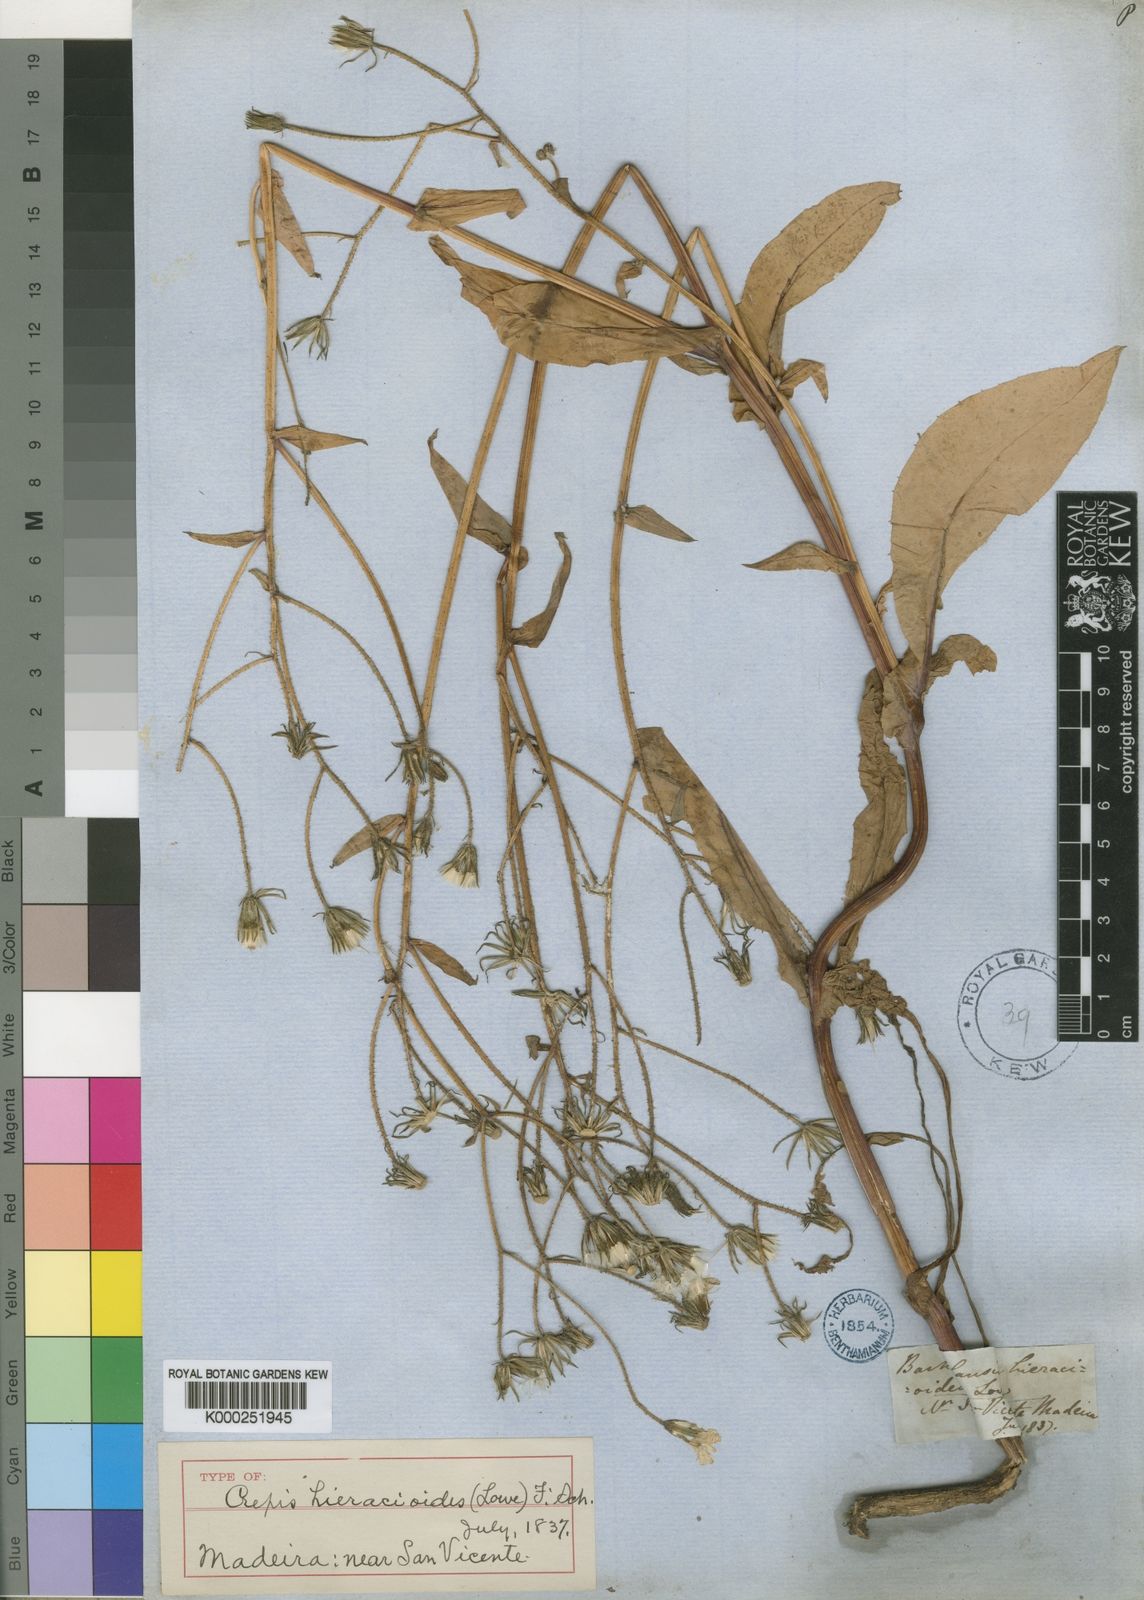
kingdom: Plantae
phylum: Tracheophyta
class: Magnoliopsida
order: Asterales
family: Asteraceae
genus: Crepis
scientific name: Crepis
